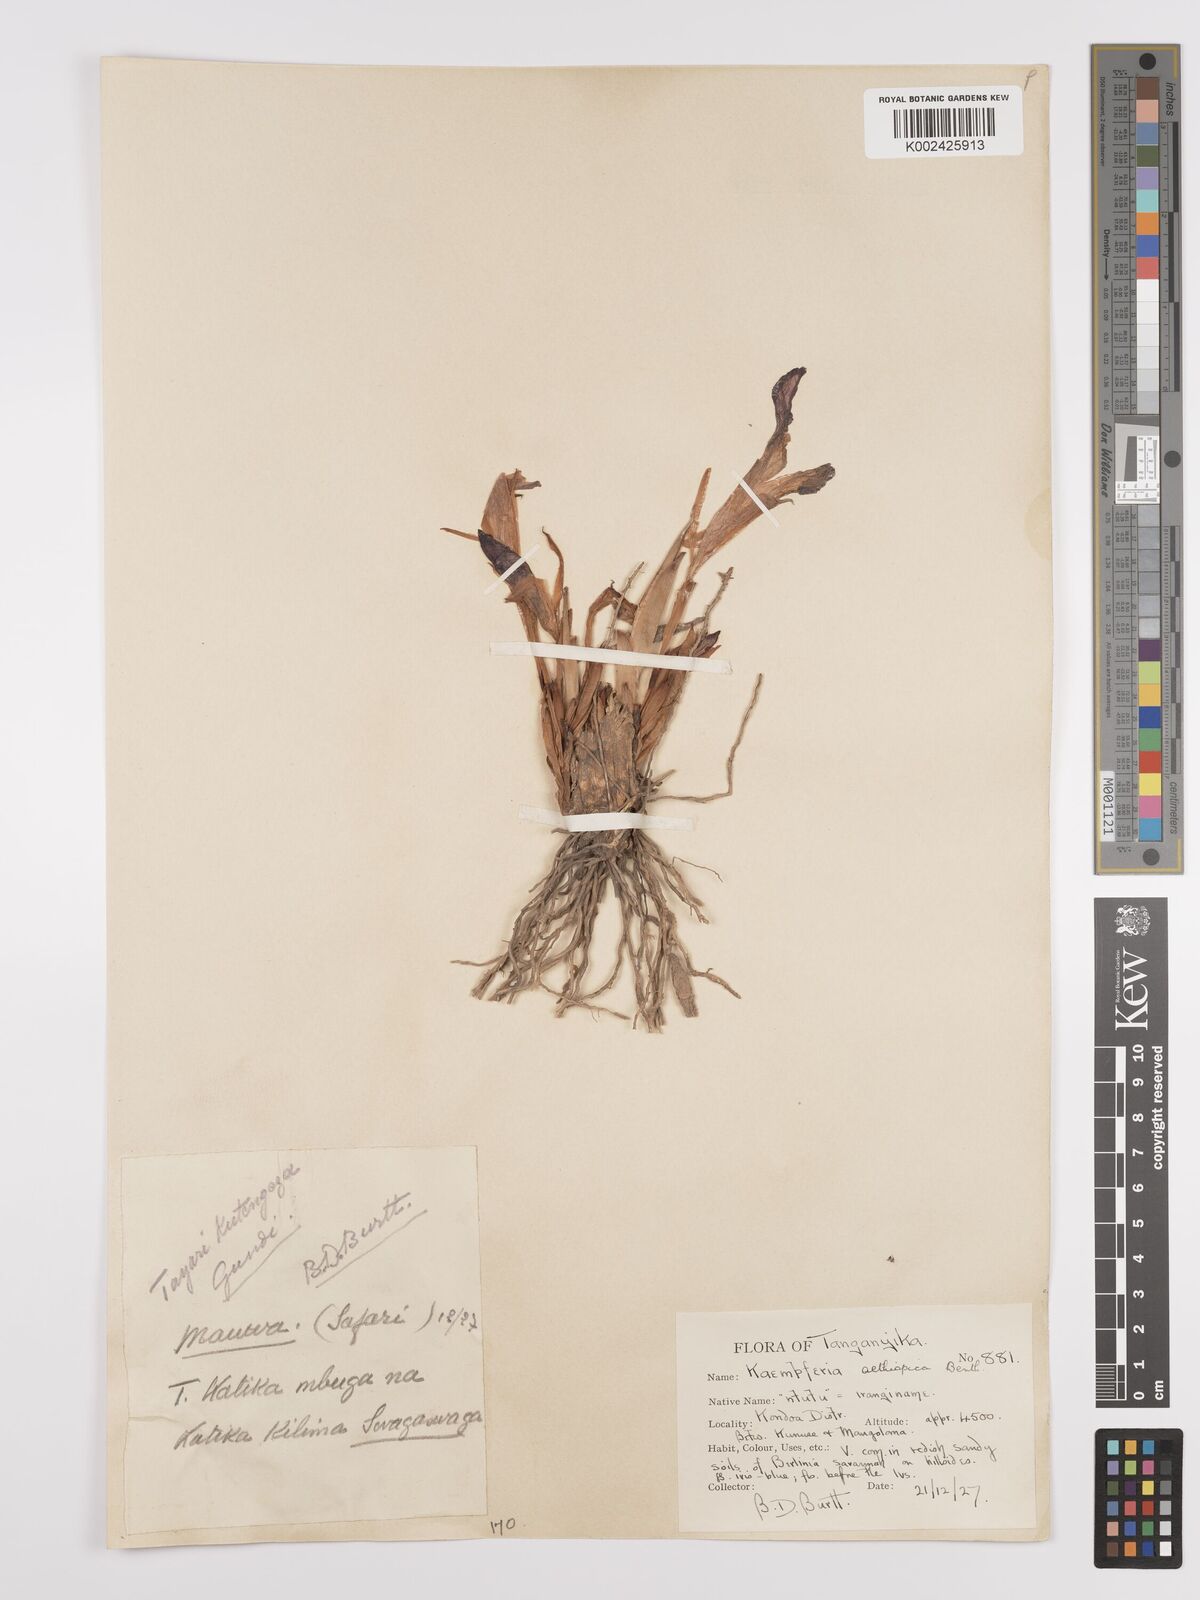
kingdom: Plantae
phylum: Tracheophyta
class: Liliopsida
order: Zingiberales
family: Zingiberaceae
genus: Siphonochilus
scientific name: Siphonochilus aethiopicus
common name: African-ginger
